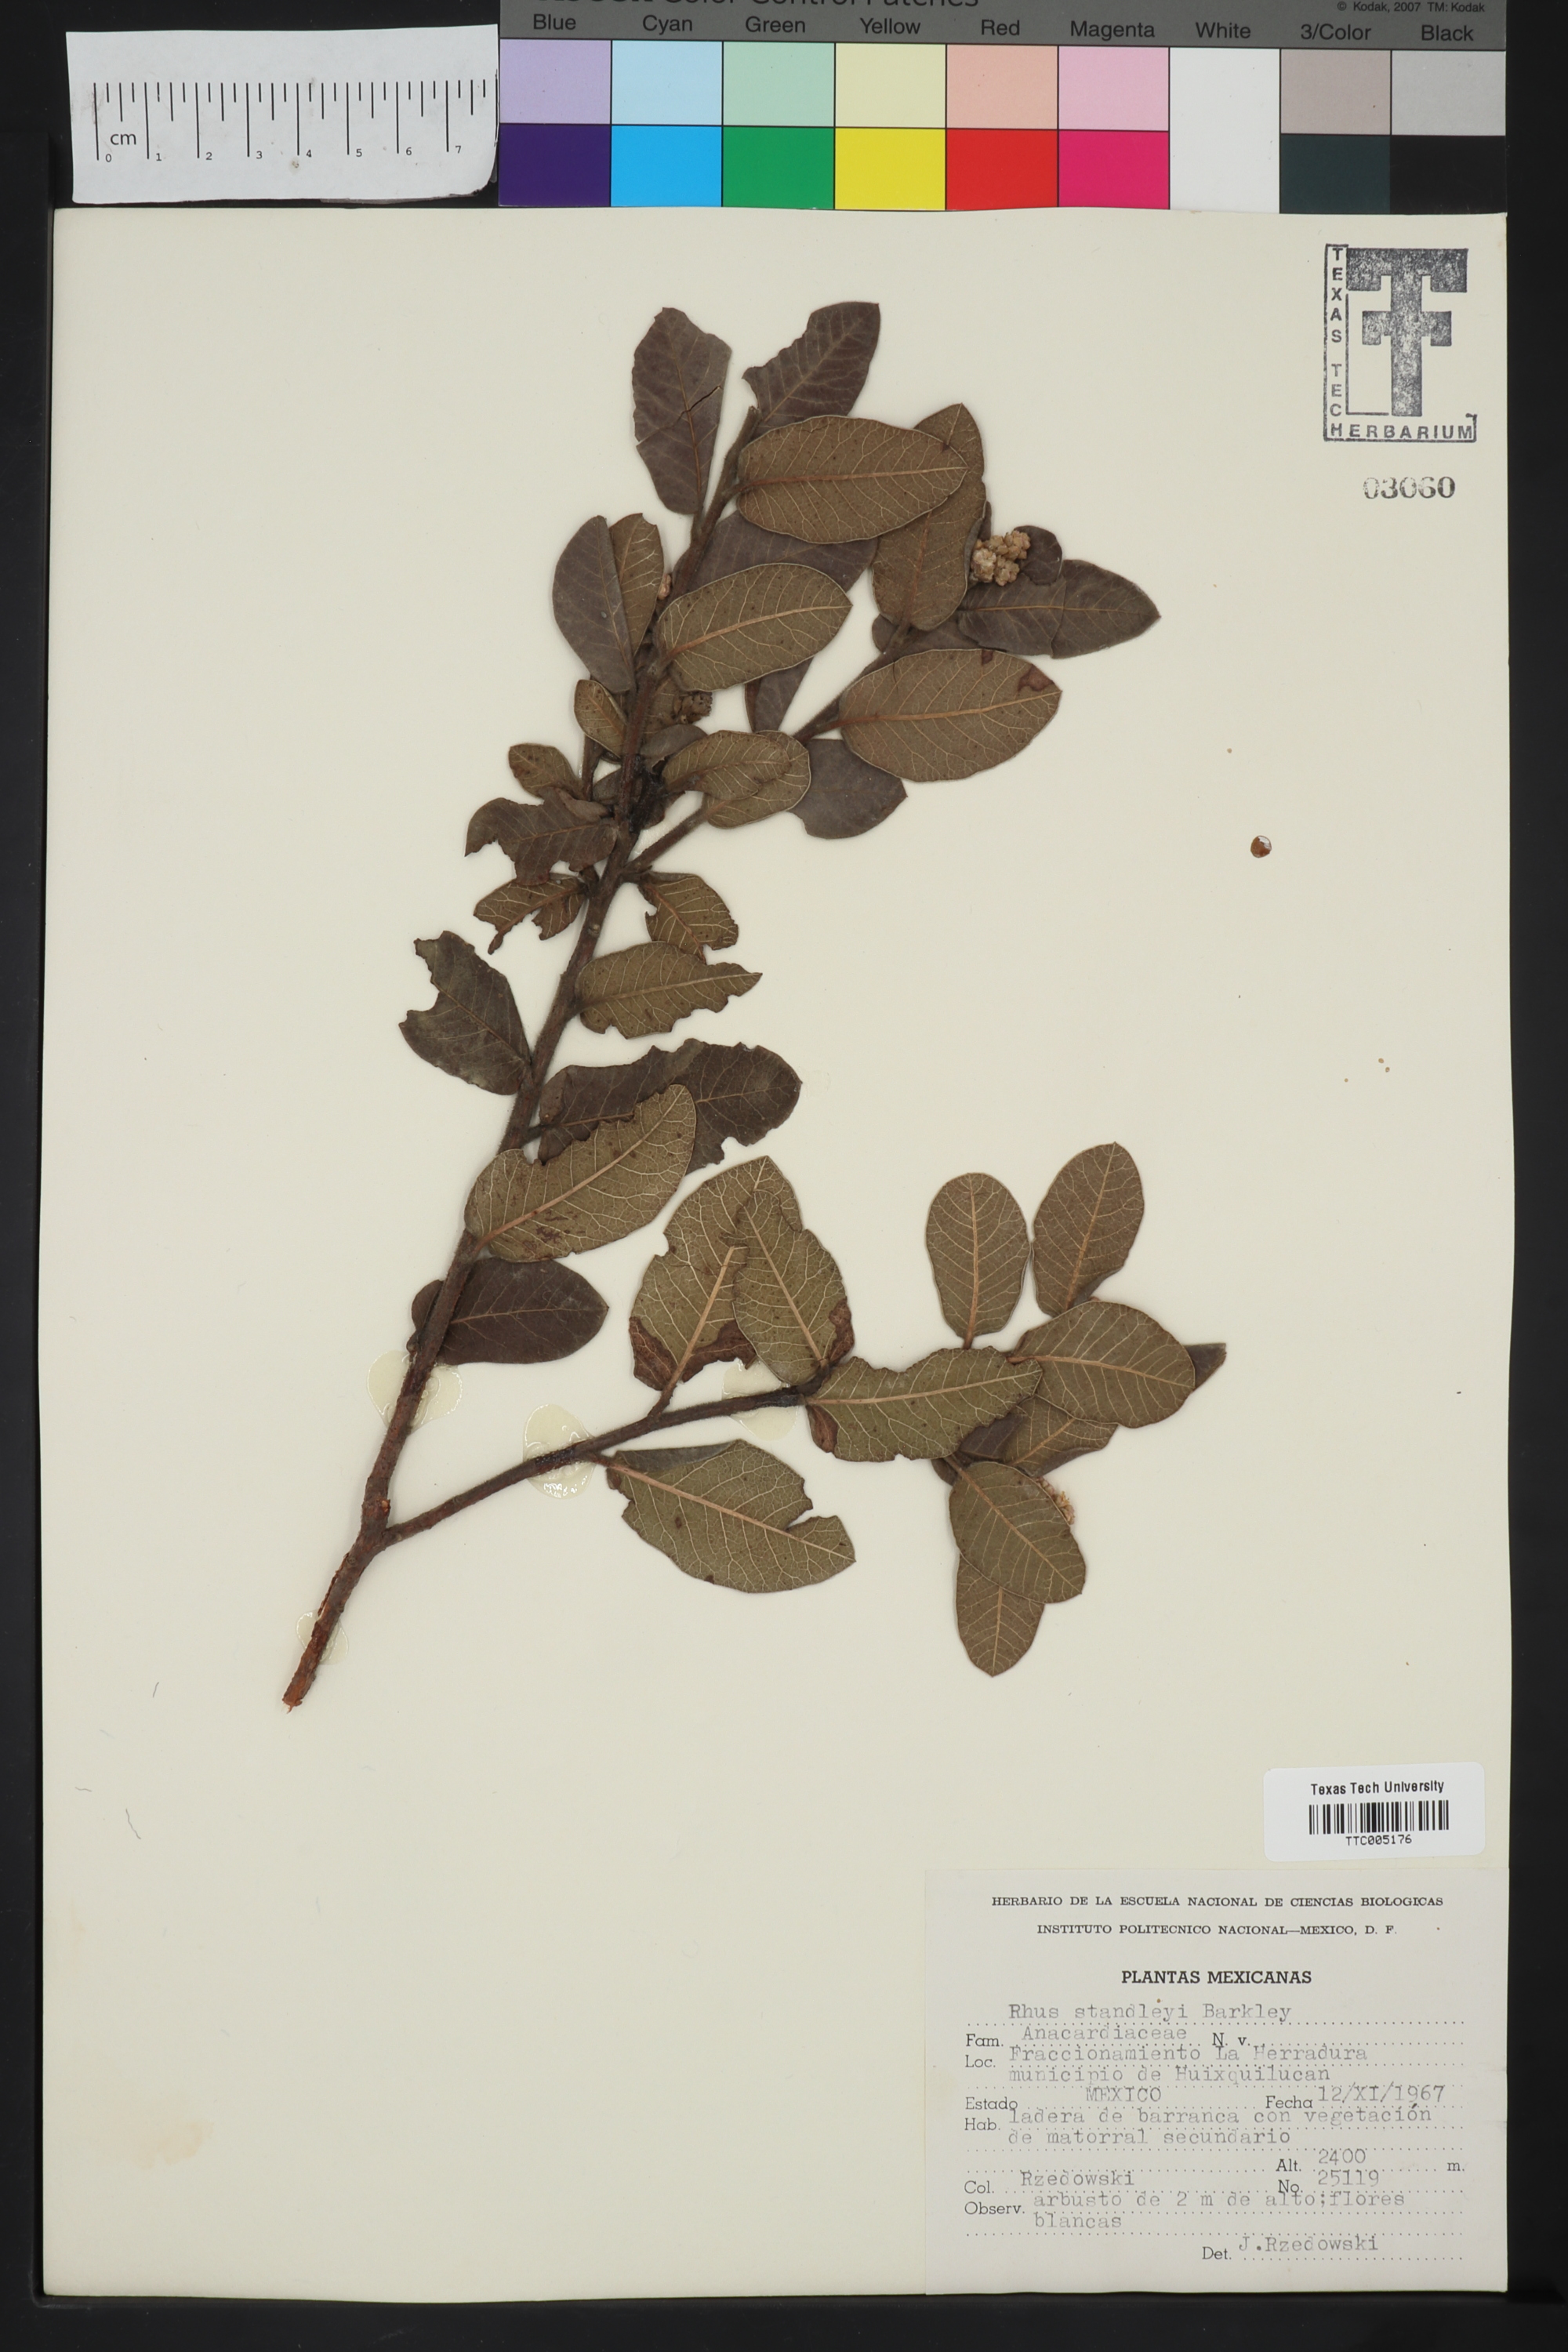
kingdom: Plantae
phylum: Tracheophyta
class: Magnoliopsida
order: Sapindales
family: Anacardiaceae
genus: Rhus
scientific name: Rhus standleyi
